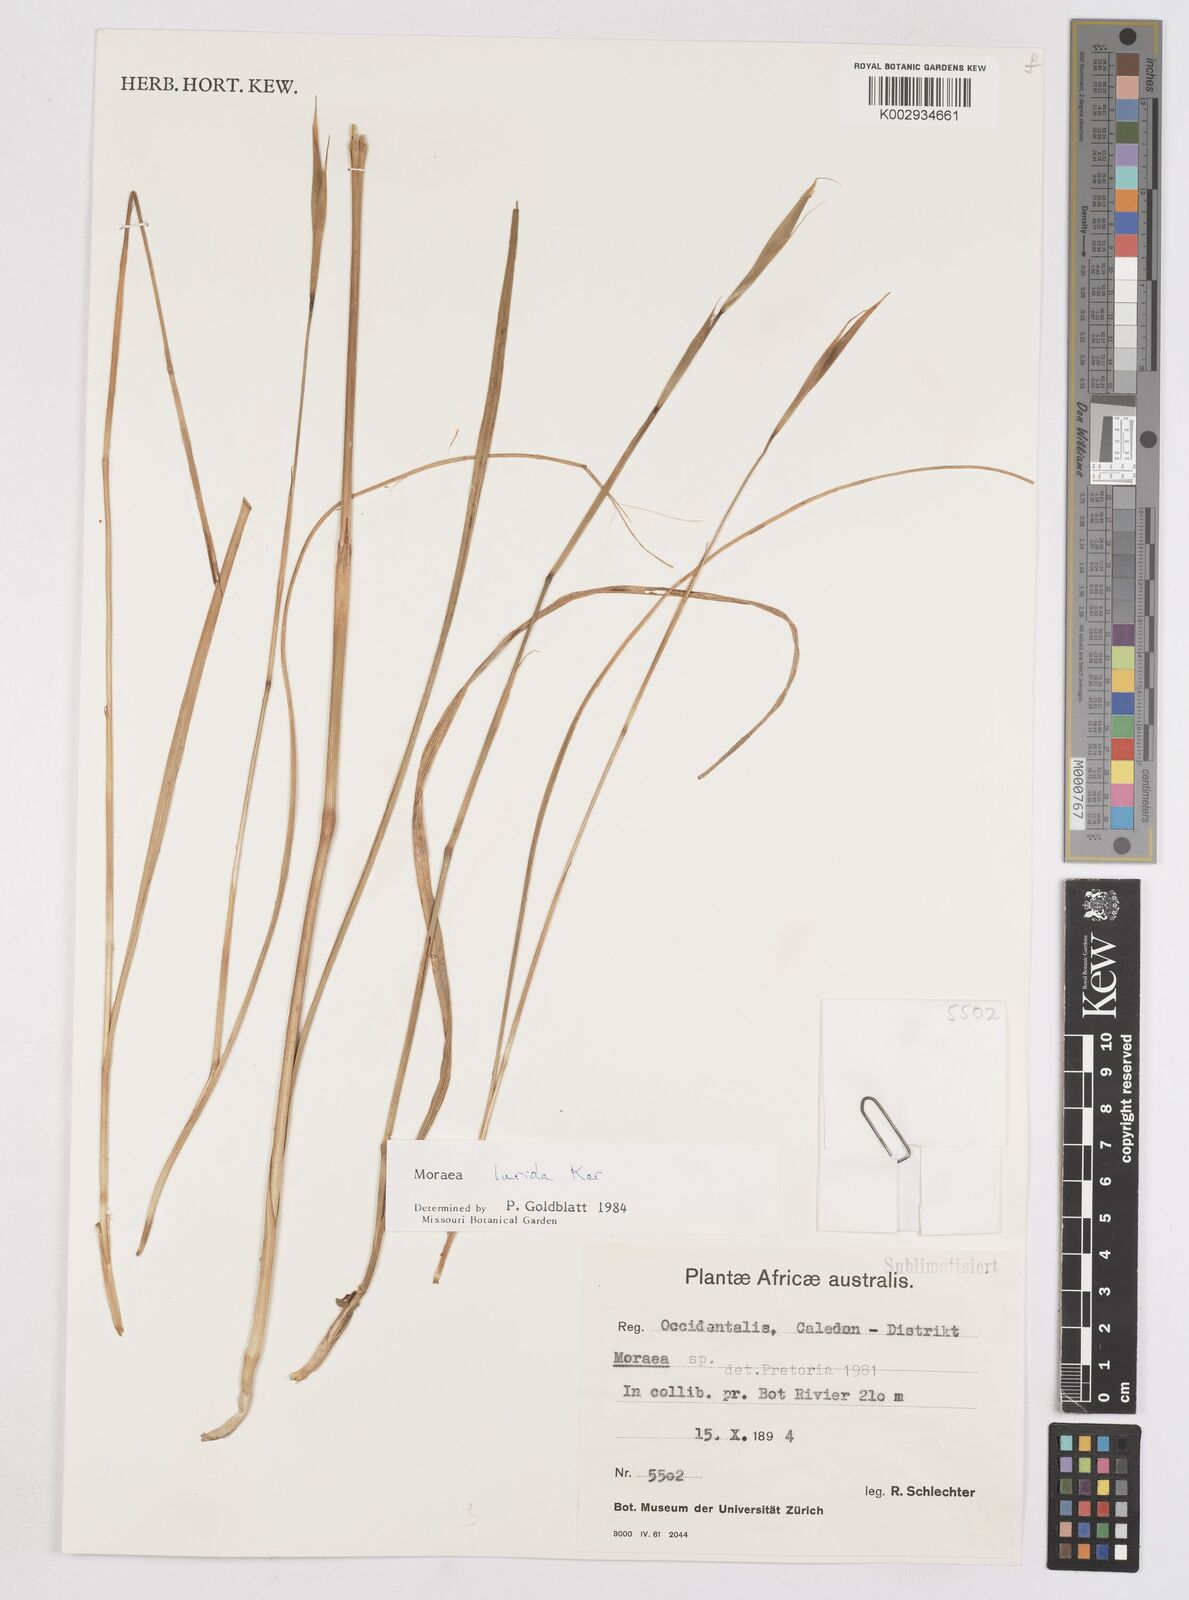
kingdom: Plantae
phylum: Tracheophyta
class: Liliopsida
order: Asparagales
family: Iridaceae
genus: Moraea
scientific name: Moraea lurida
